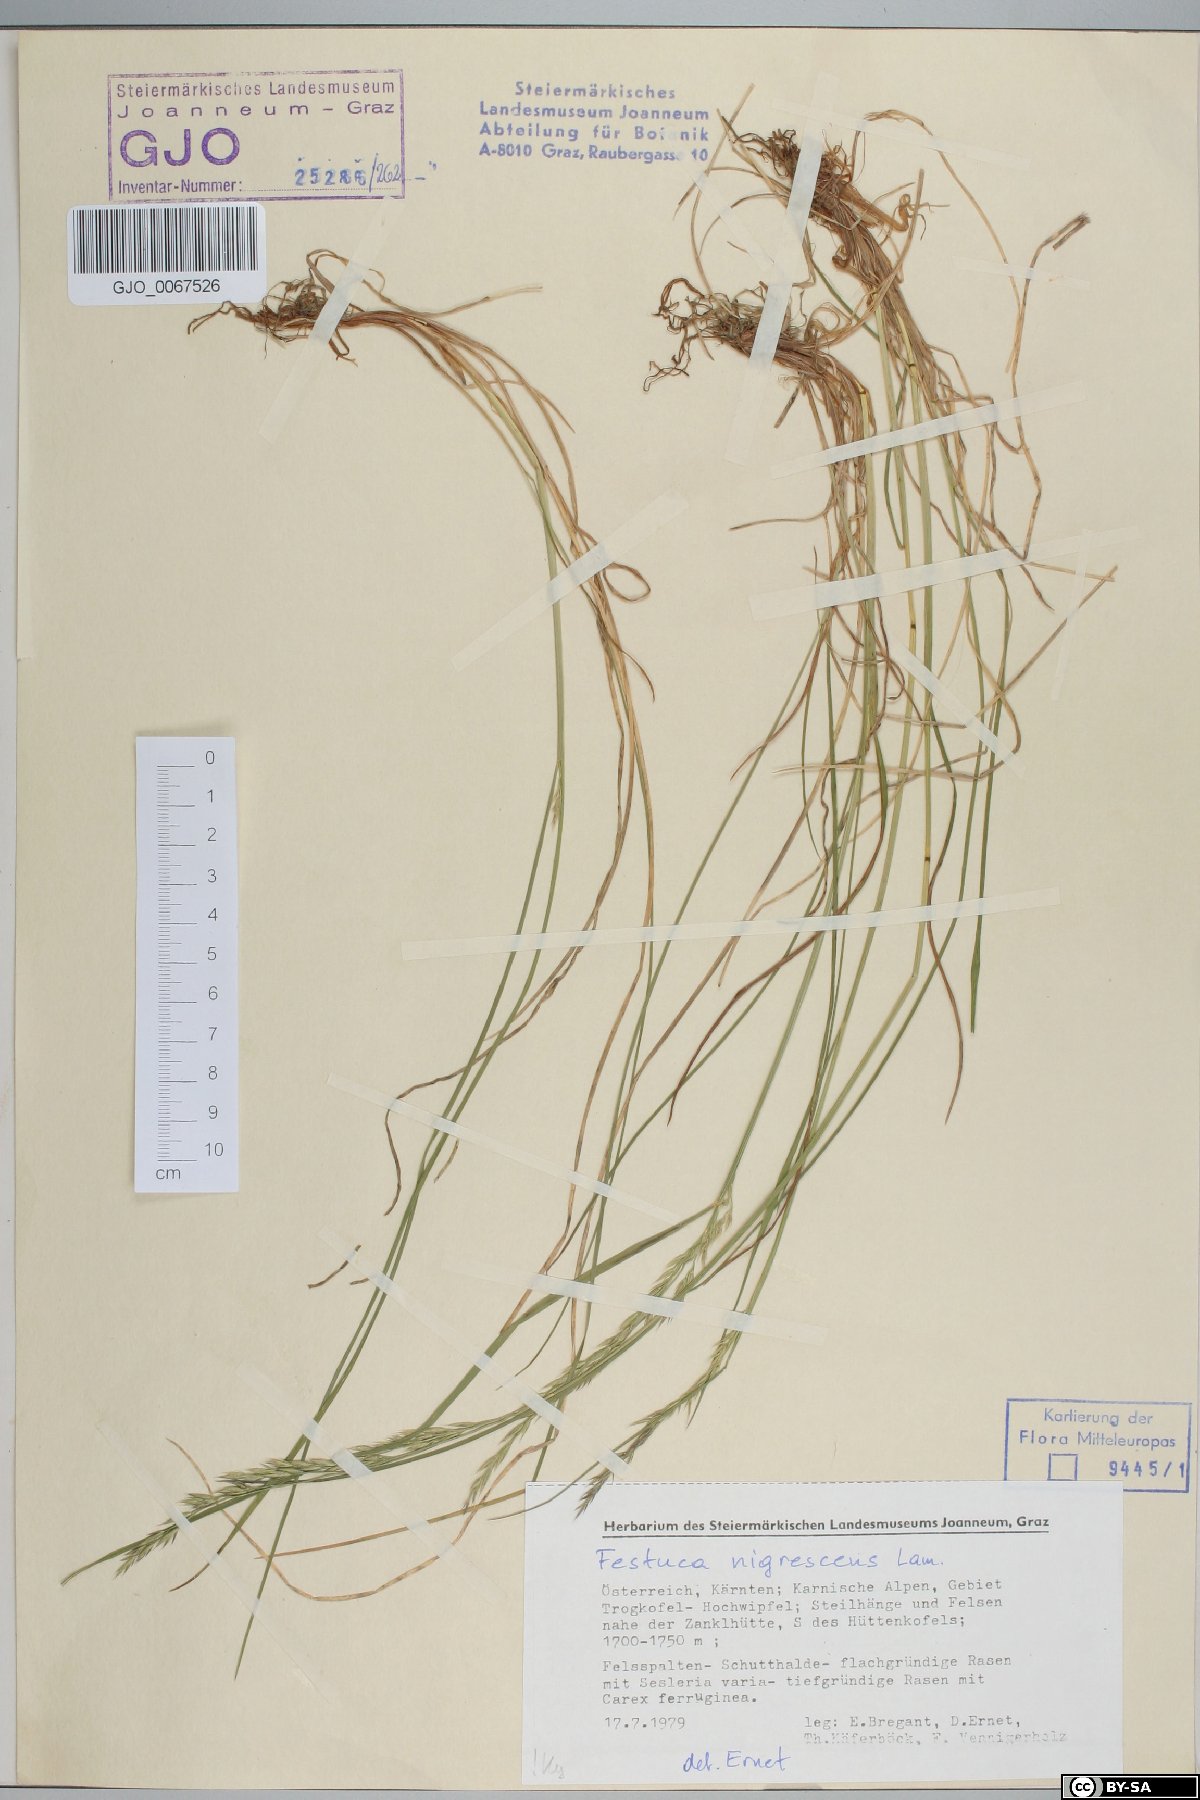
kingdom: Plantae
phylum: Tracheophyta
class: Liliopsida
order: Poales
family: Poaceae
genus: Festuca
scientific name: Festuca nigrescens
